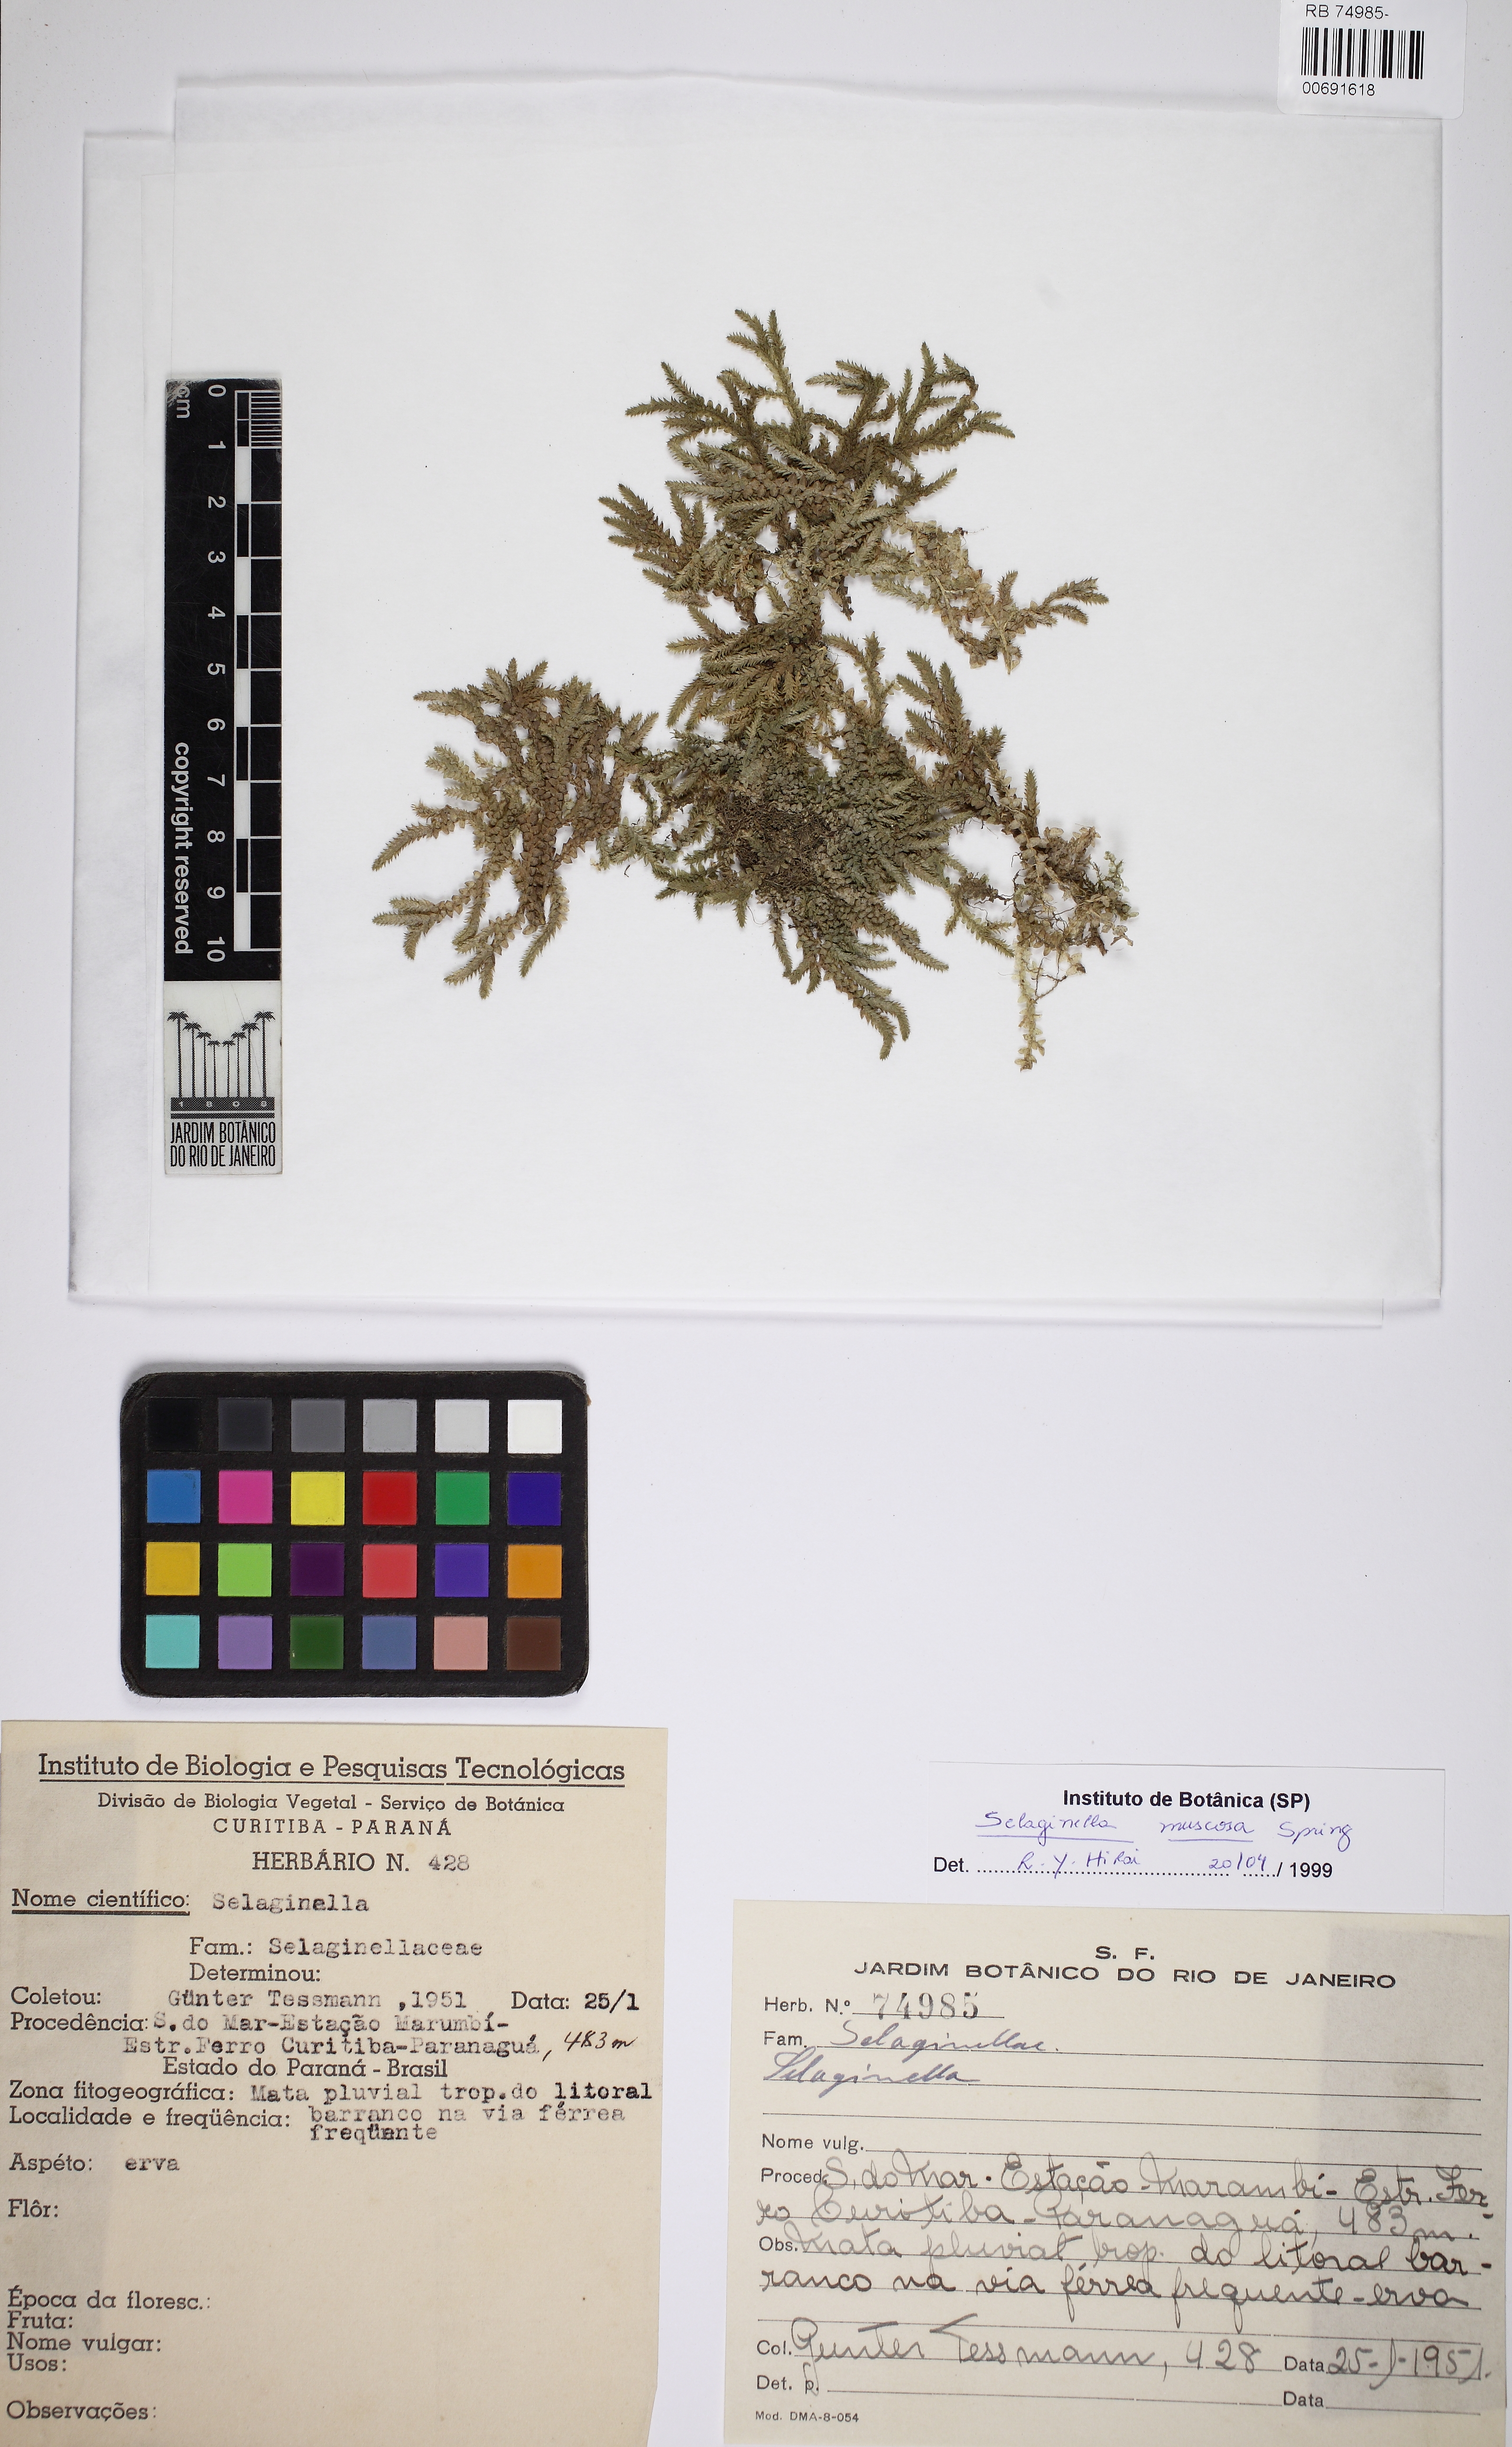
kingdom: Plantae
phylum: Tracheophyta
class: Lycopodiopsida
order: Selaginellales
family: Selaginellaceae
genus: Selaginella
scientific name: Selaginella muscosa
